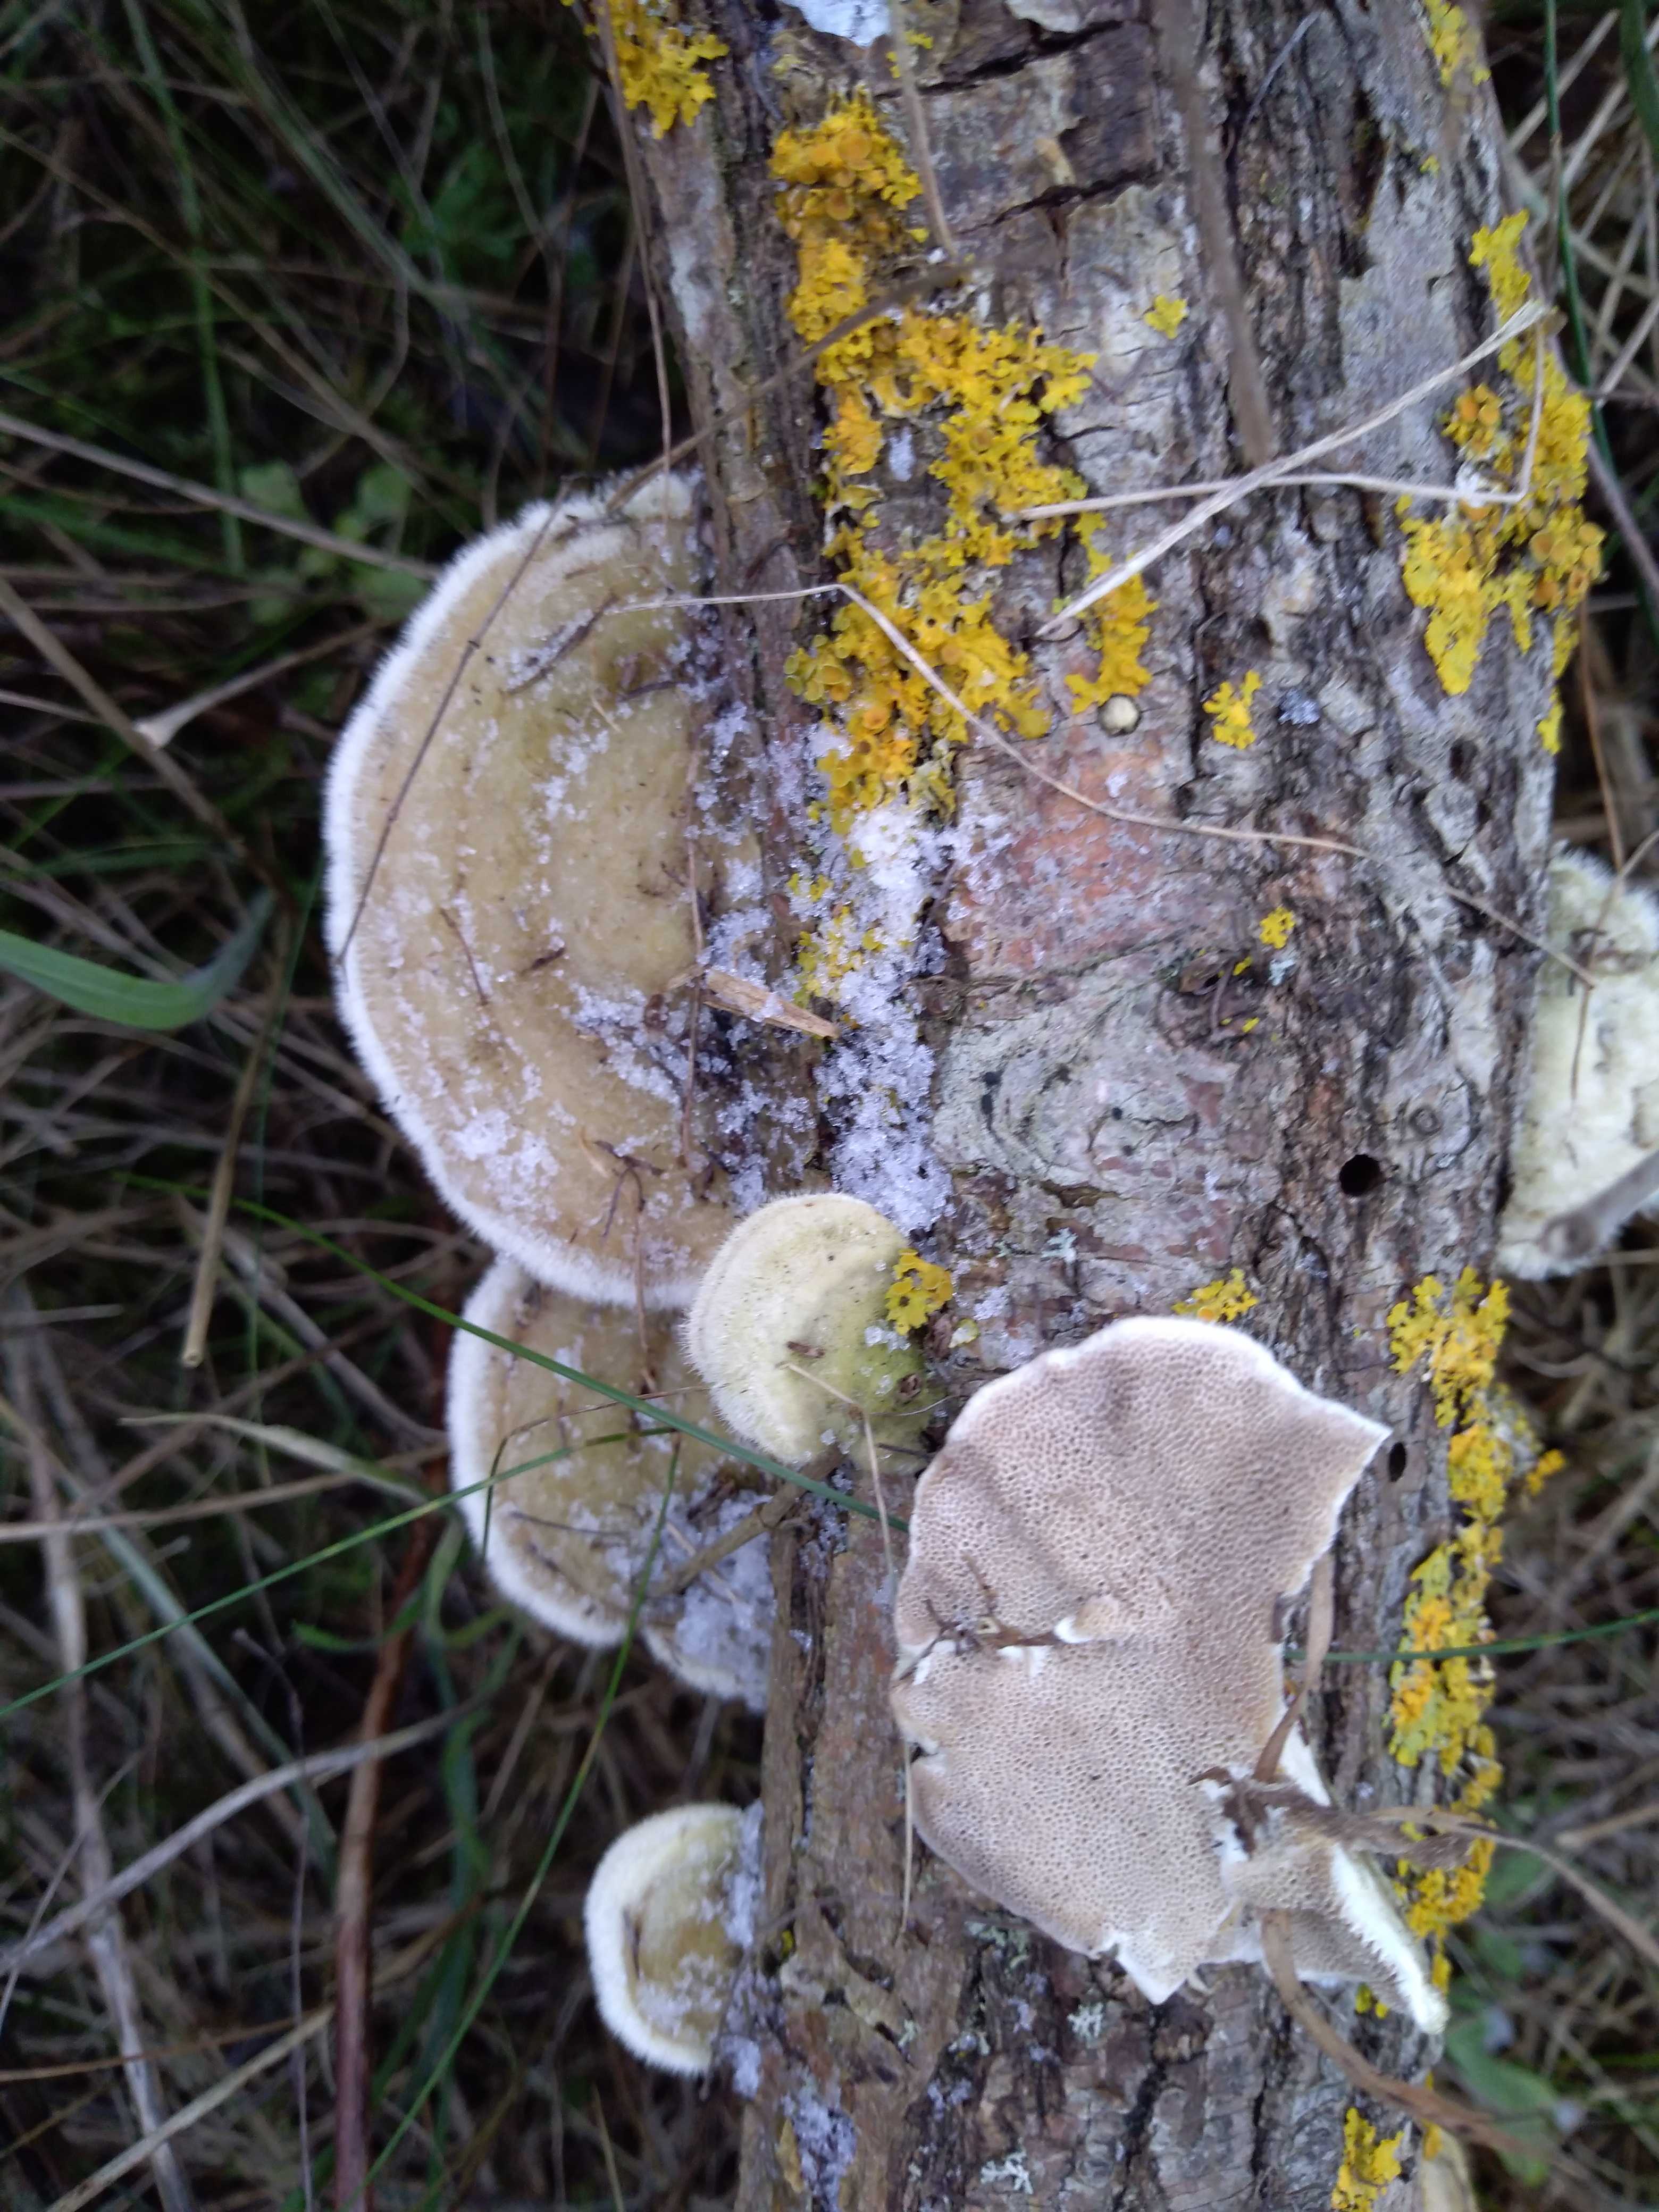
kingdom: Fungi
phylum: Basidiomycota
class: Agaricomycetes
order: Polyporales
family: Polyporaceae
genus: Trametes
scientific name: Trametes hirsuta
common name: håret læderporesvamp
